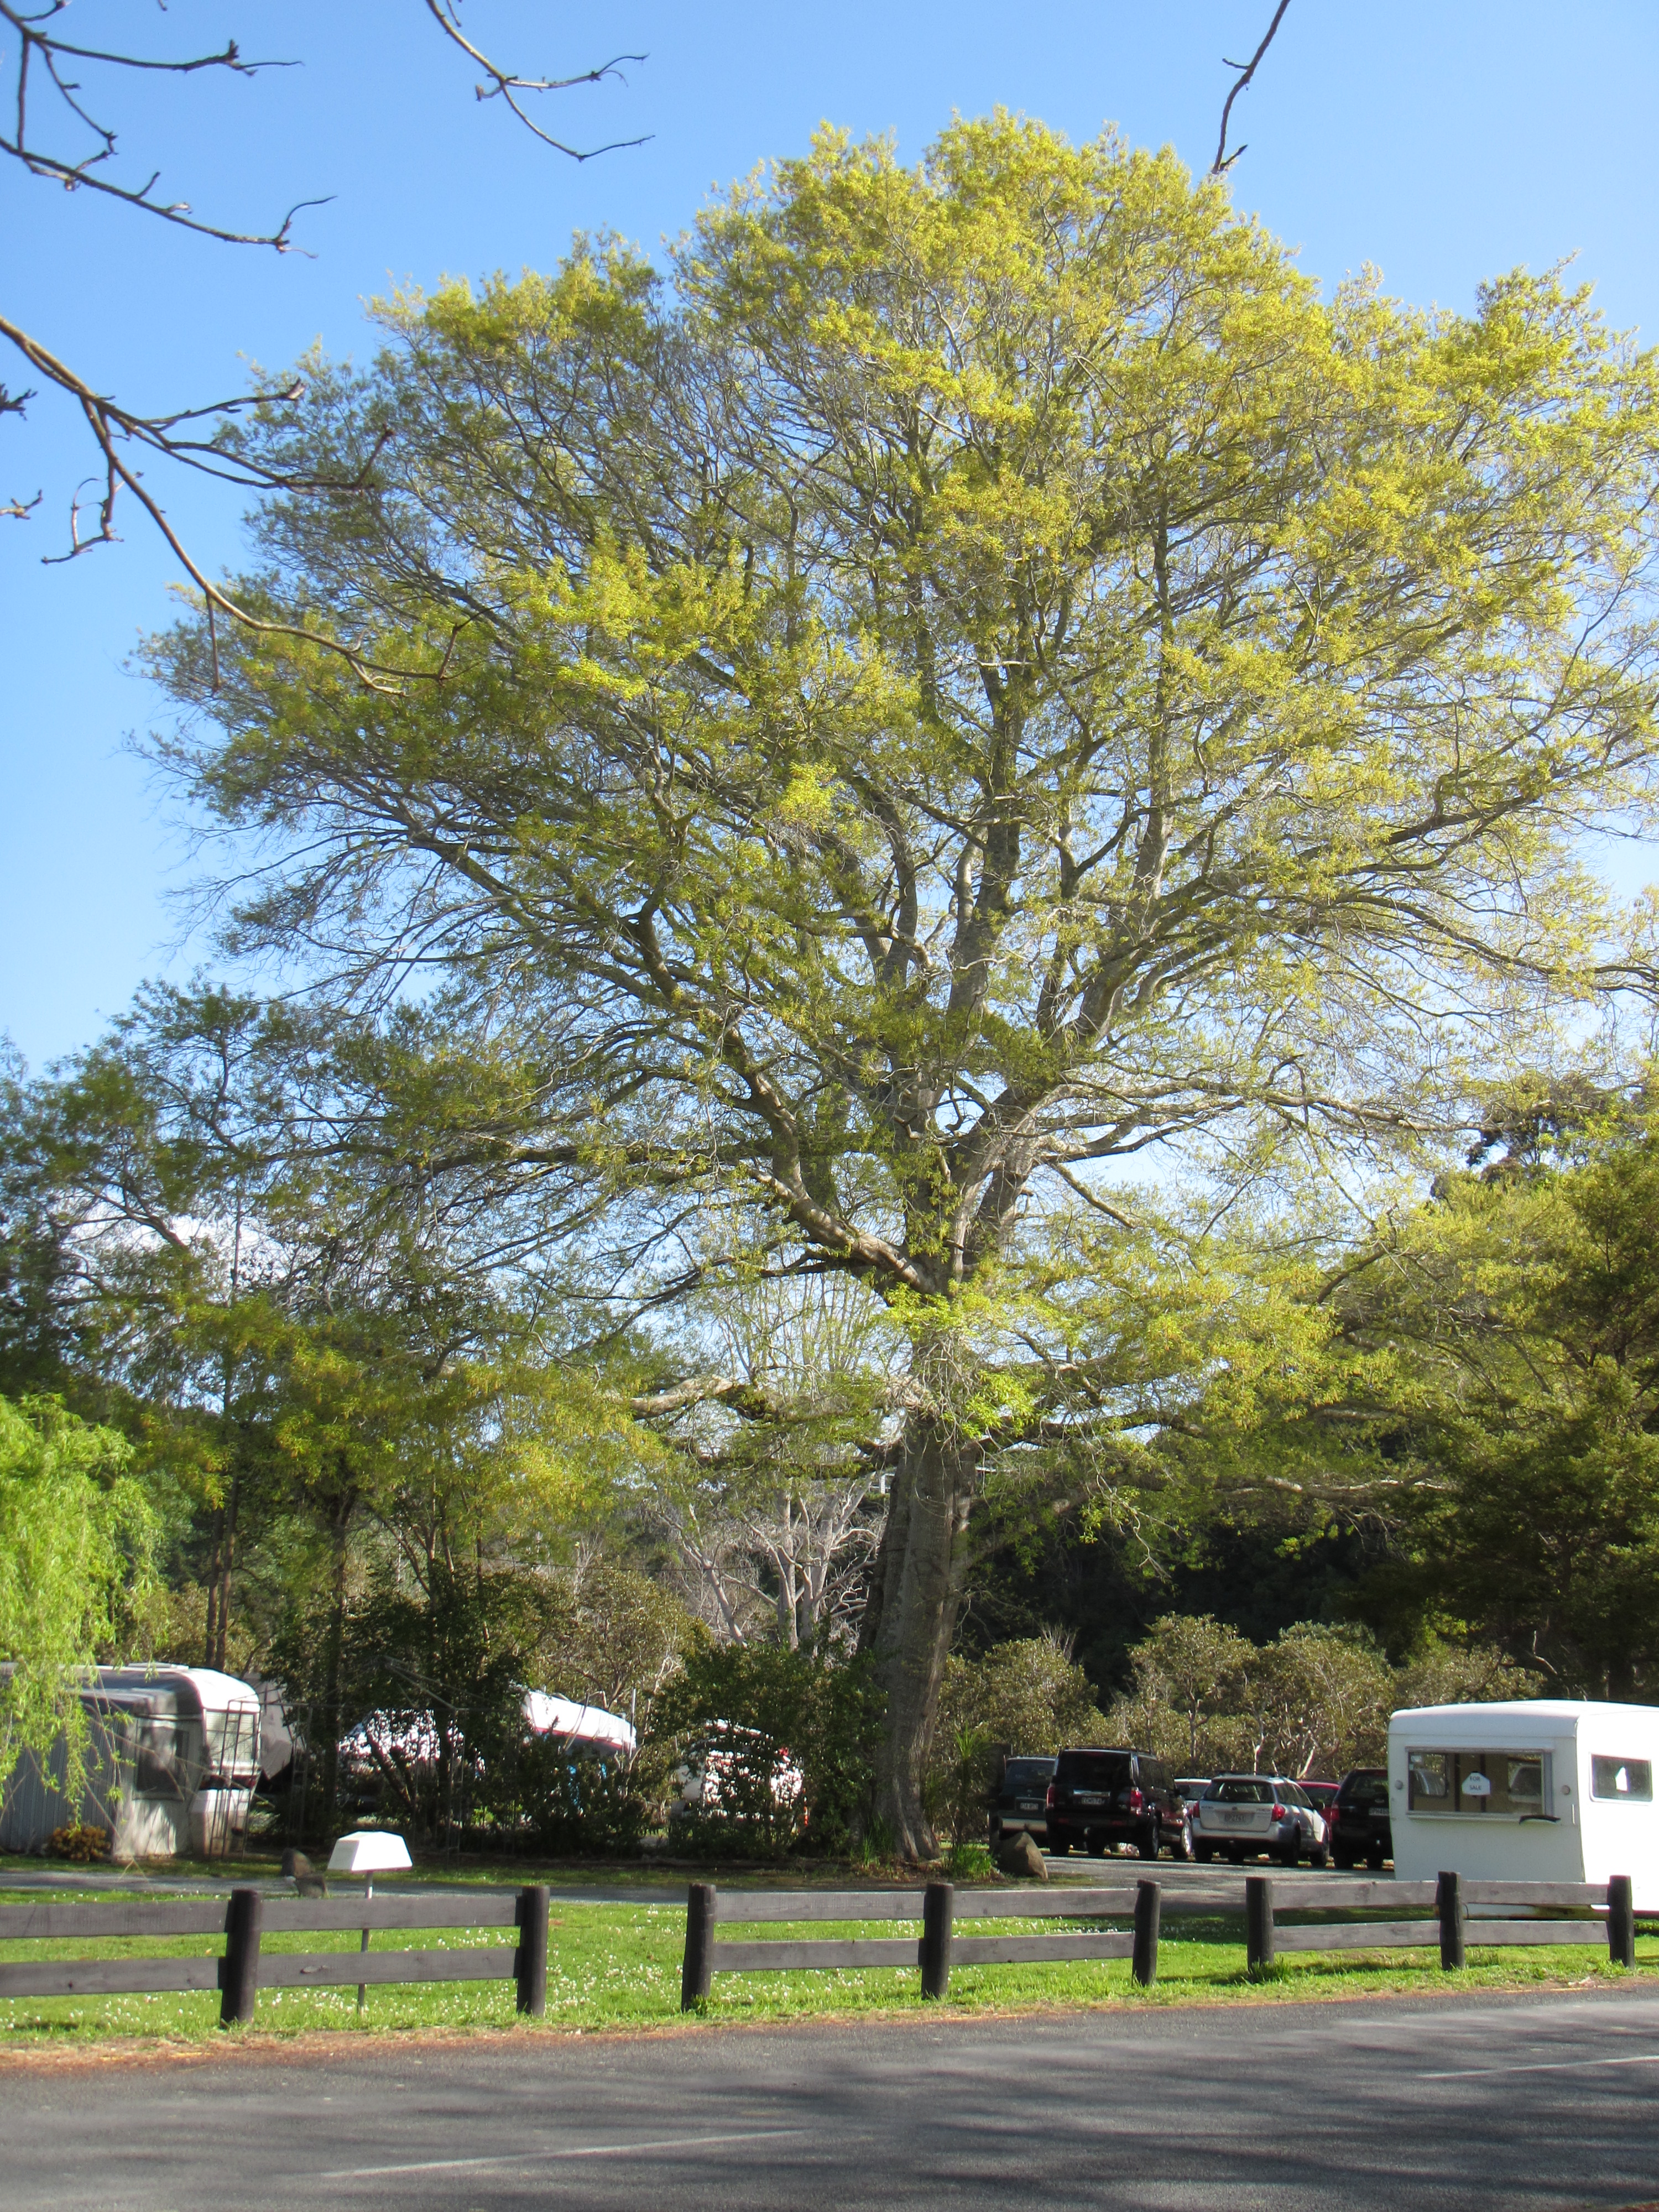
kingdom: Plantae
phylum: Tracheophyta
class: Magnoliopsida
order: Fagales
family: Fagaceae
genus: Quercus
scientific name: Quercus ludoviciana
